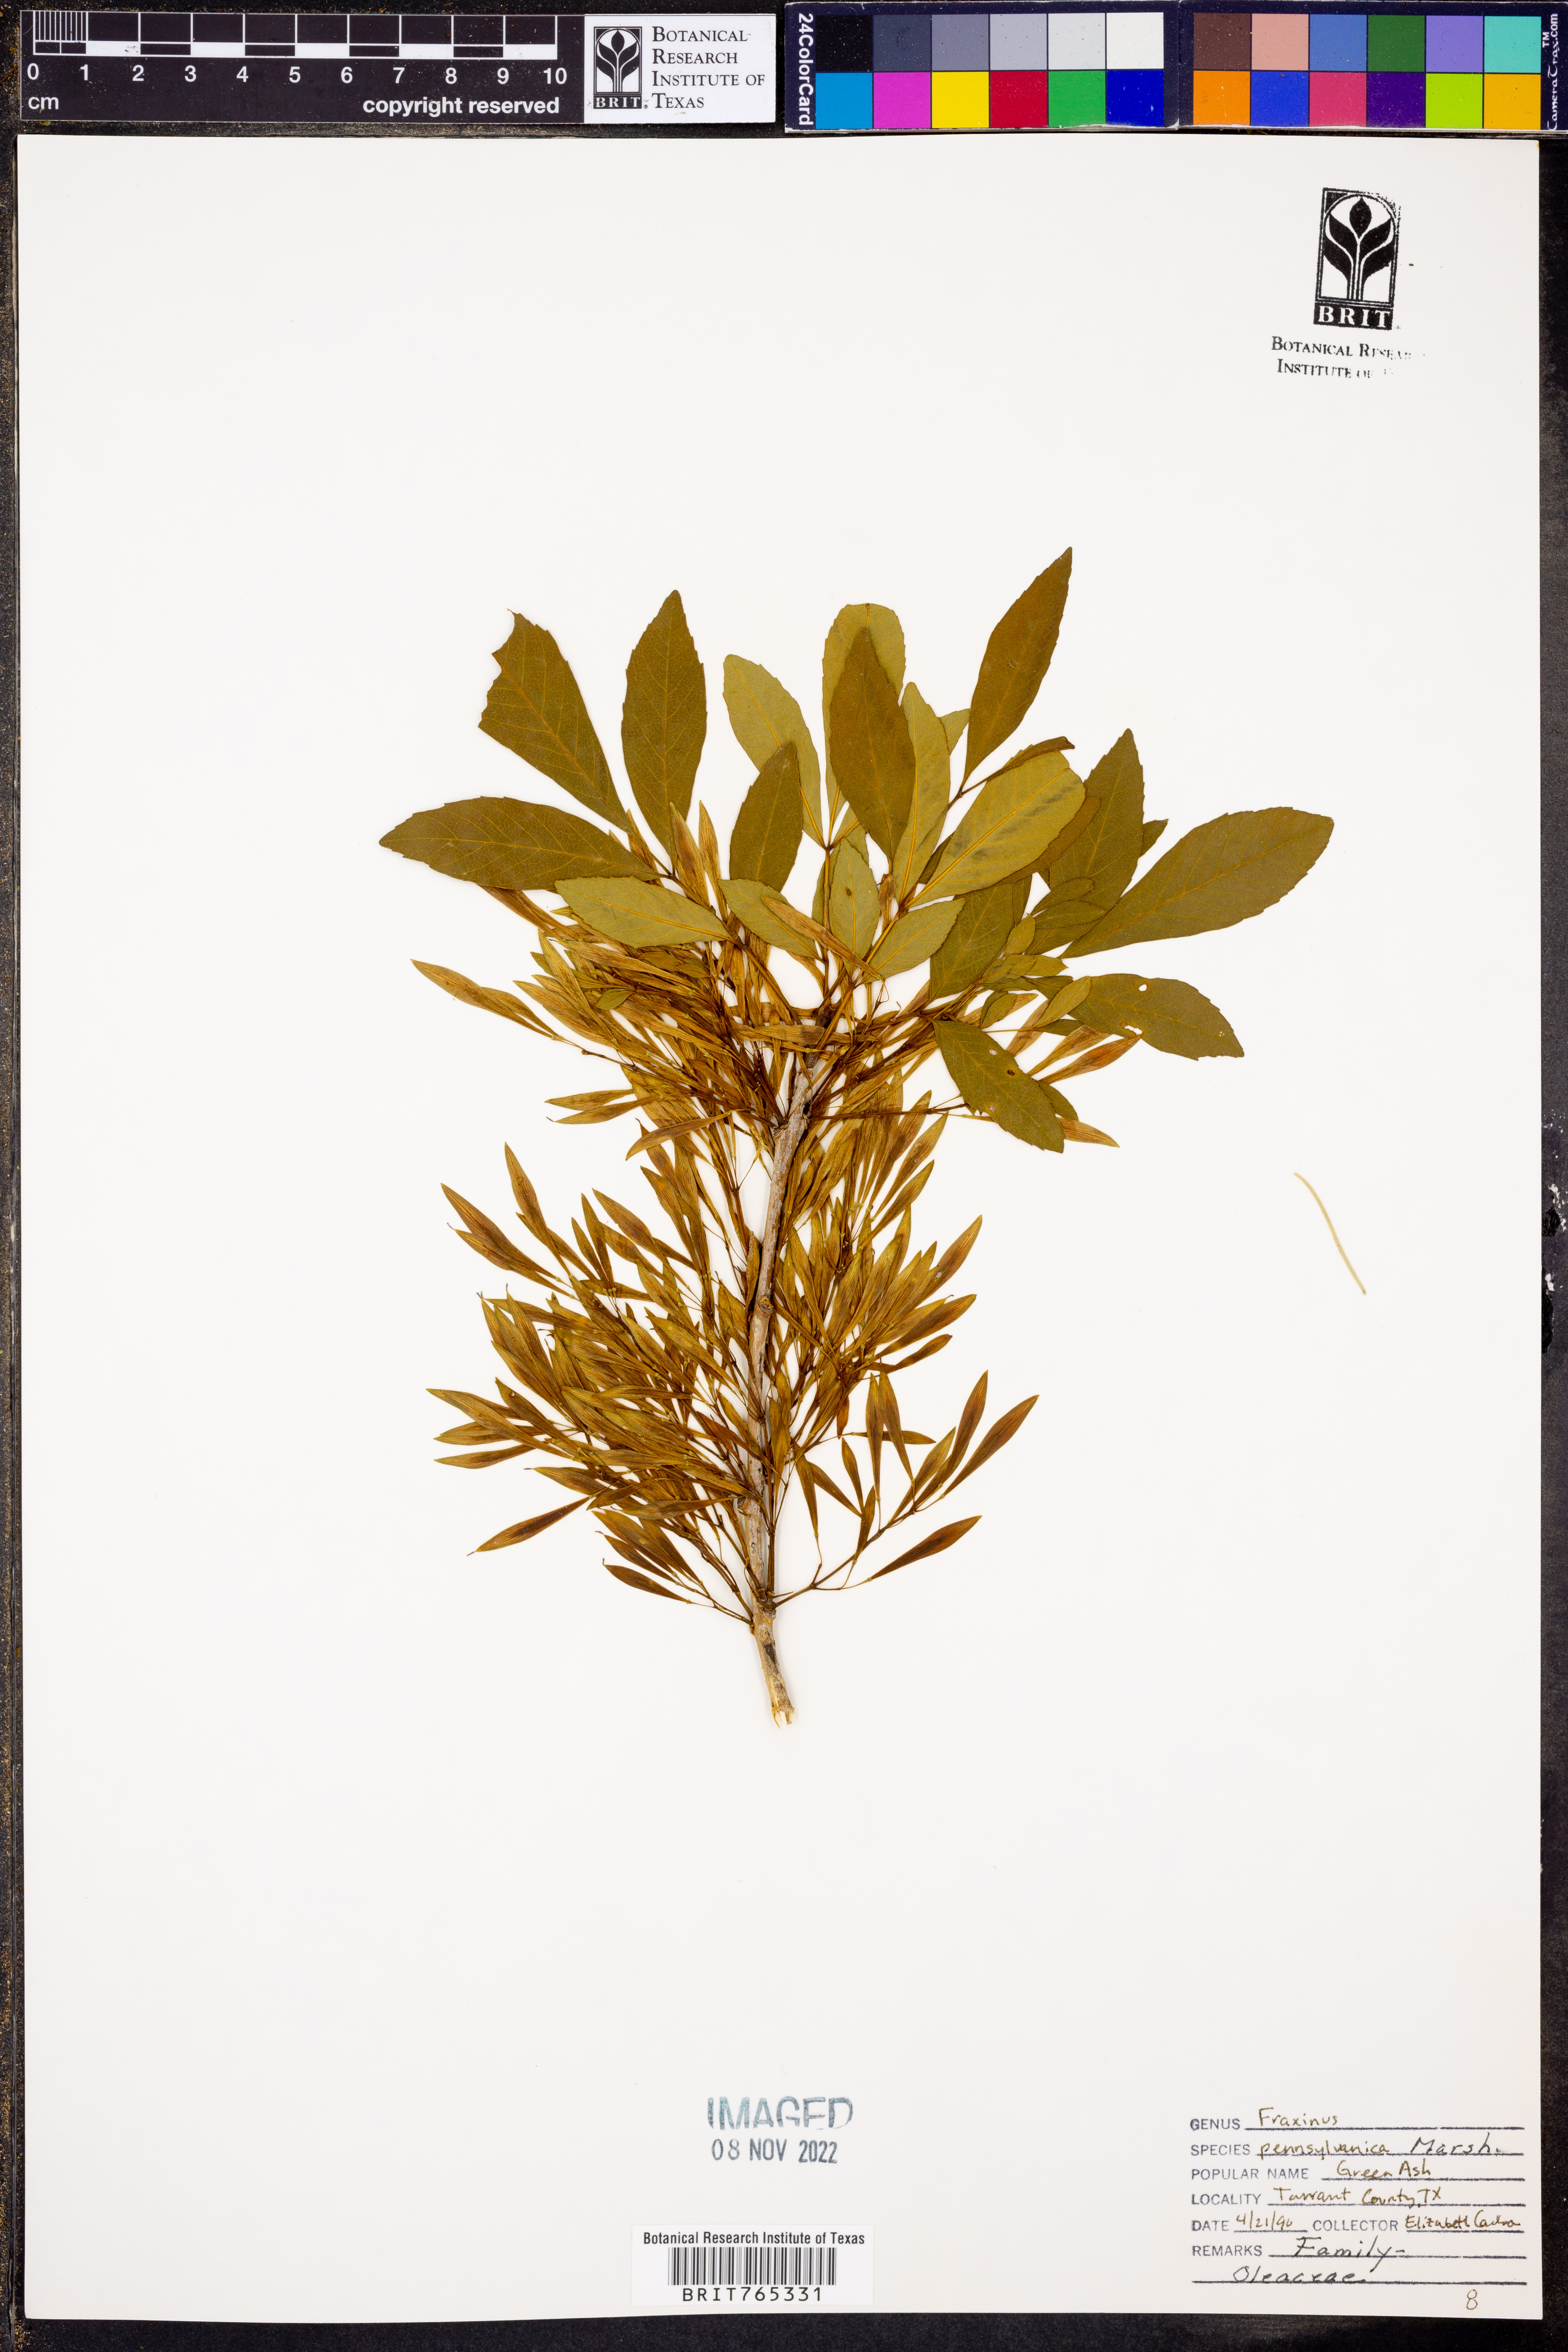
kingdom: Plantae
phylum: Tracheophyta
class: Magnoliopsida
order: Lamiales
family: Oleaceae
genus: Fraxinus
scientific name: Fraxinus pennsylvanica
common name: Green ash
